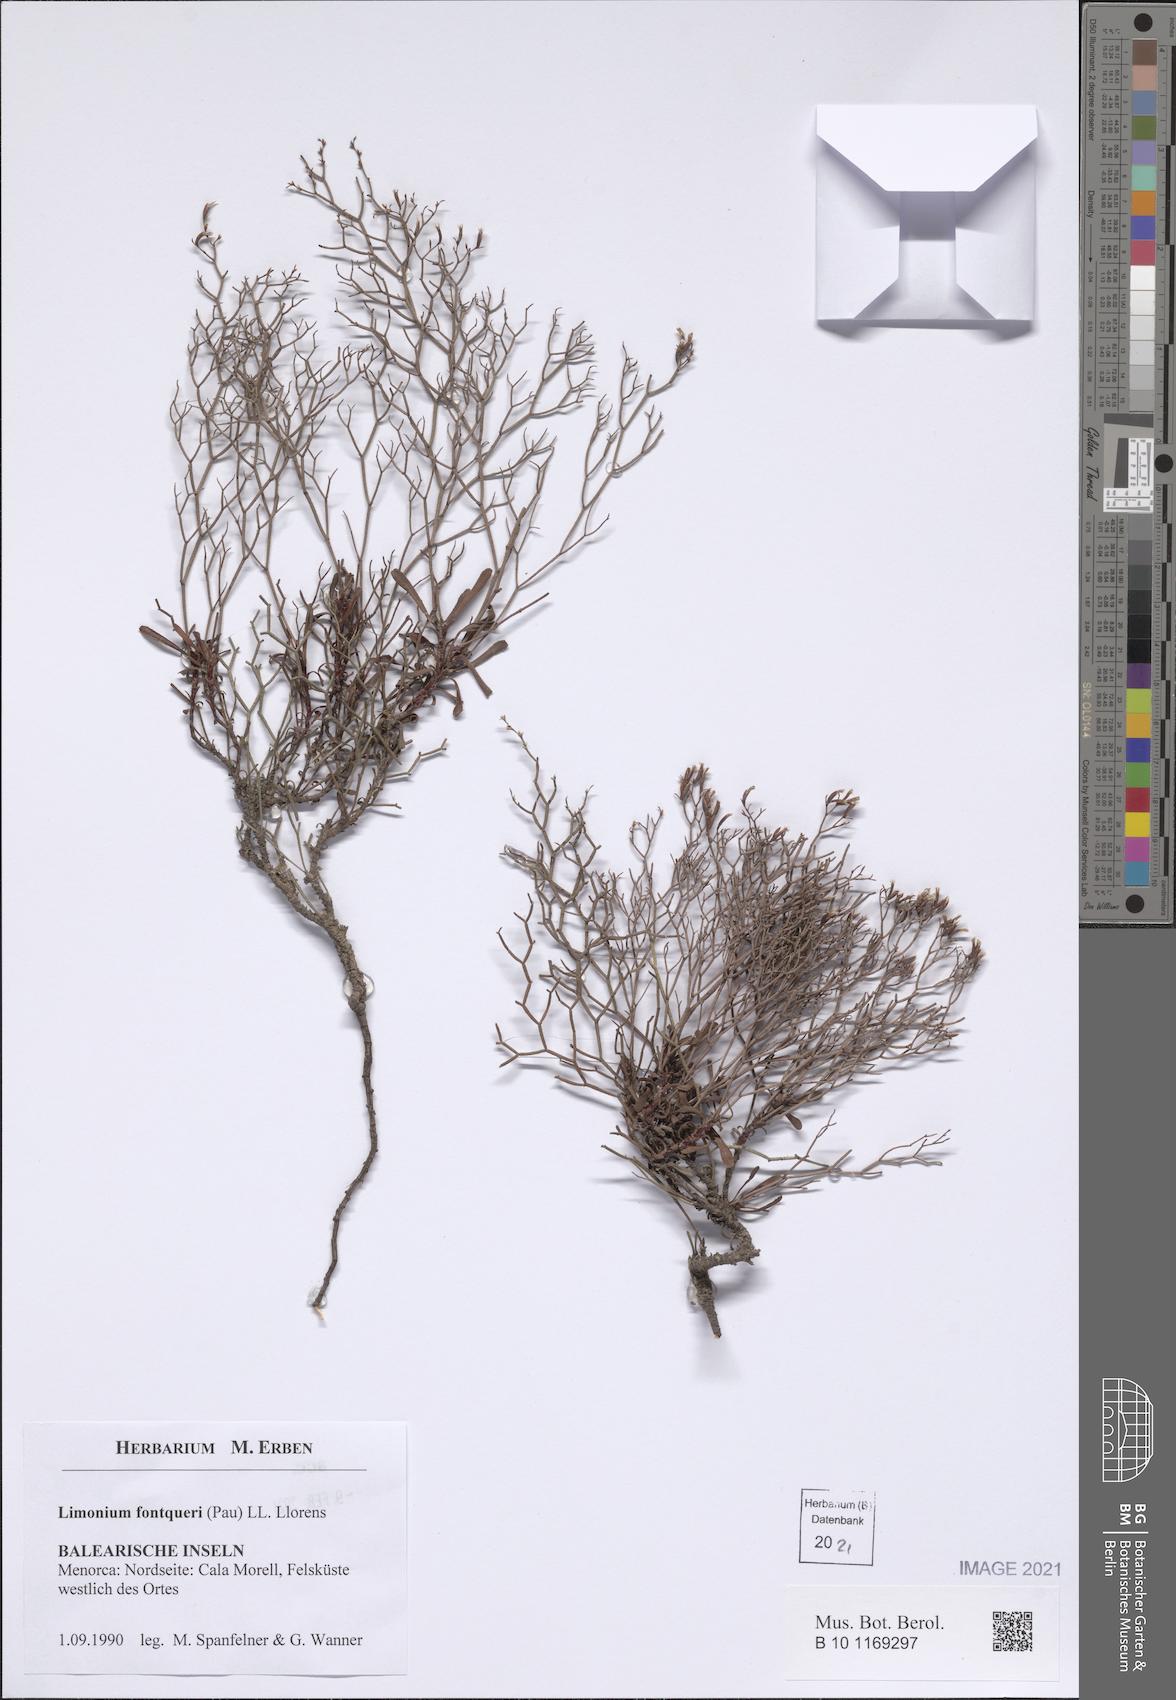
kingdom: Plantae
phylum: Tracheophyta
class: Magnoliopsida
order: Caryophyllales
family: Plumbaginaceae
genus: Limonium
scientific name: Limonium fontqueri
